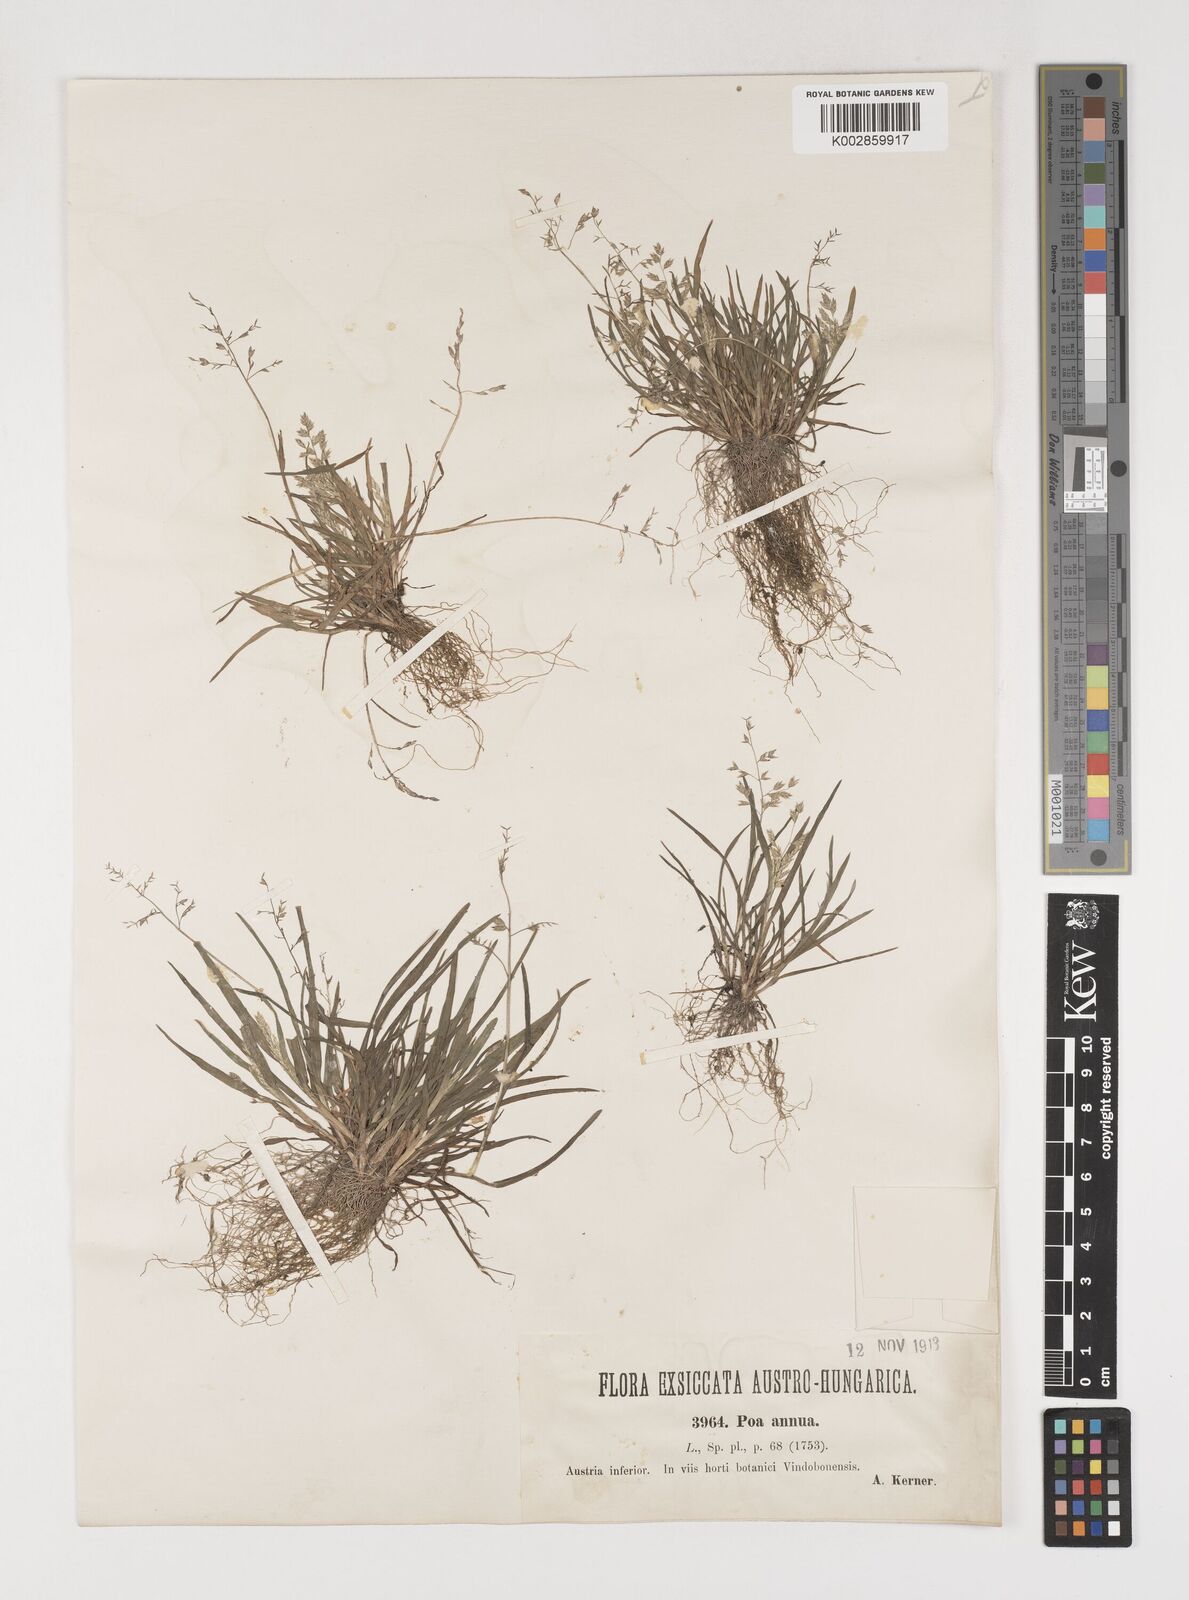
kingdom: Plantae
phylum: Tracheophyta
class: Liliopsida
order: Poales
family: Poaceae
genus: Poa
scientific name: Poa annua
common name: Annual bluegrass
